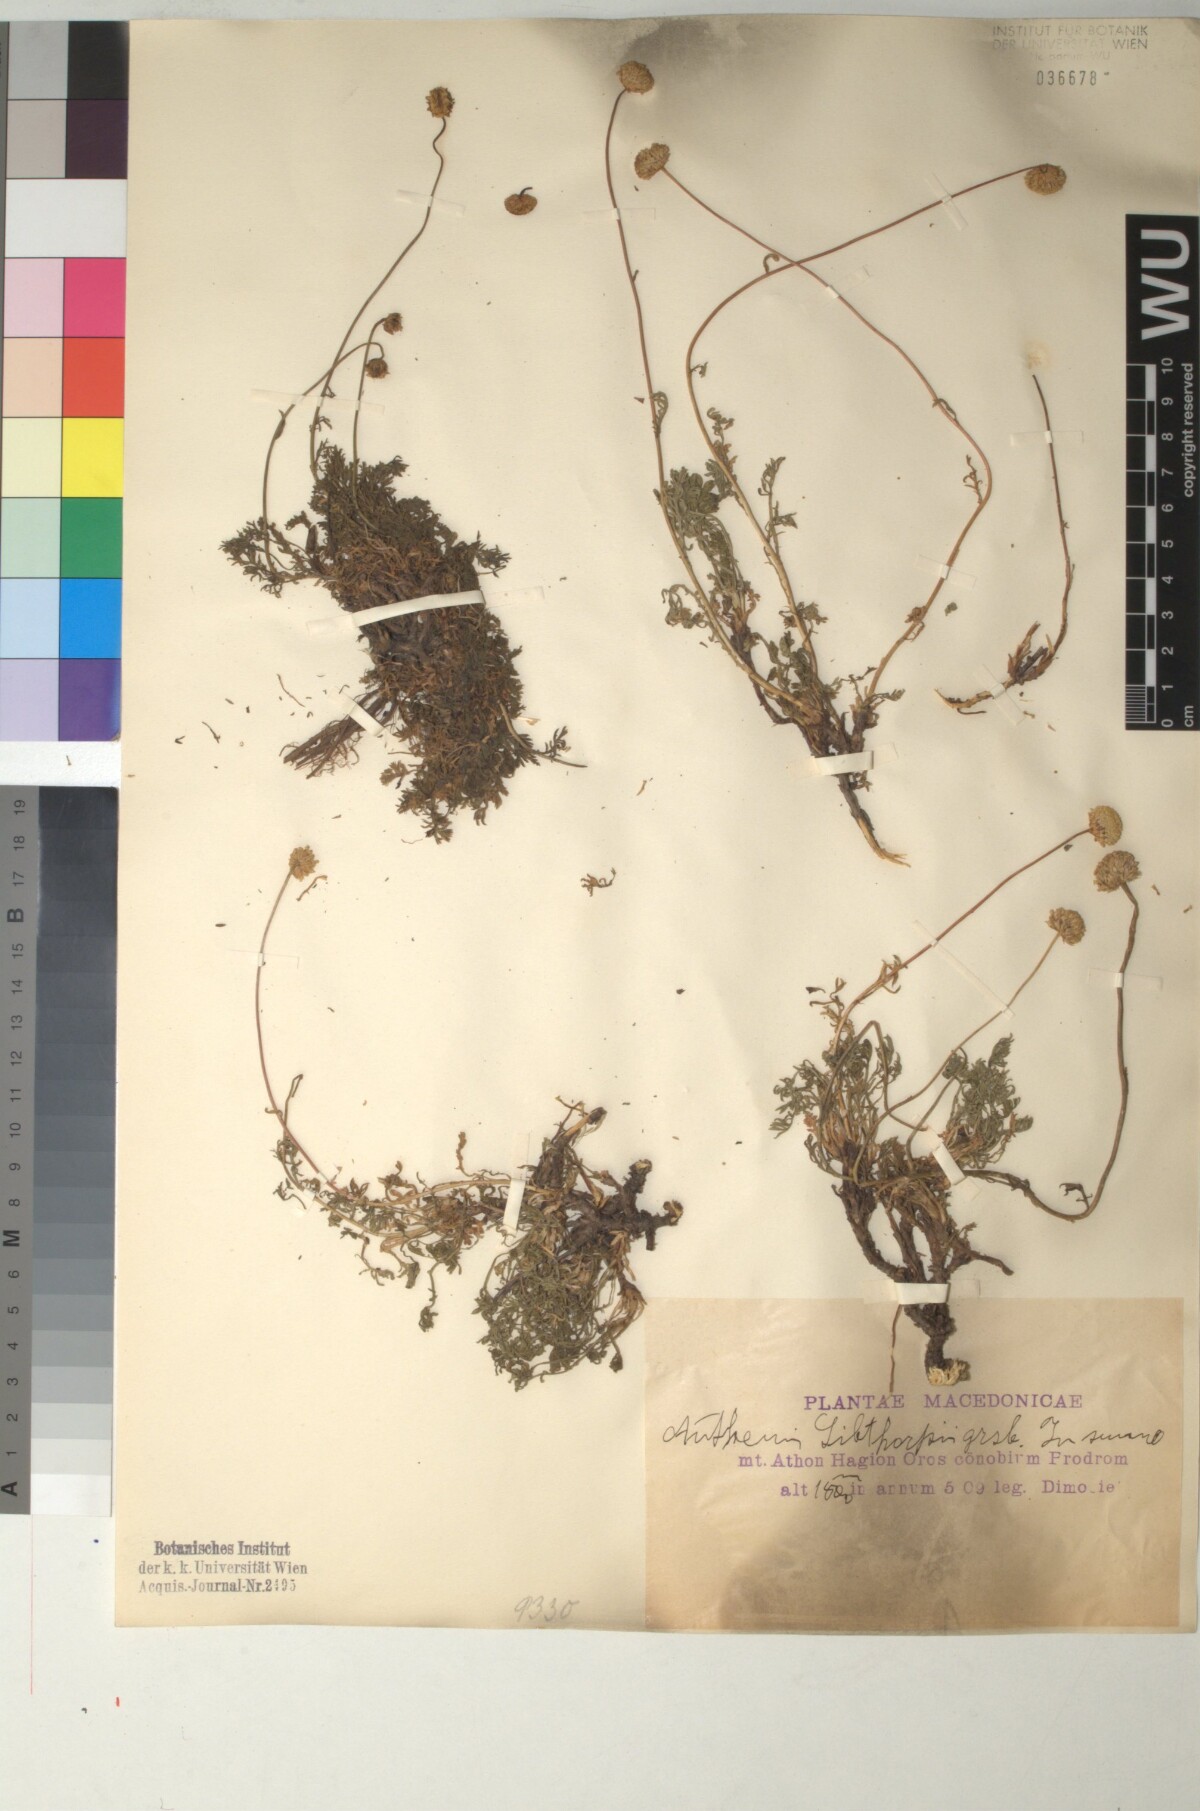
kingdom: Plantae
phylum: Tracheophyta
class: Magnoliopsida
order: Asterales
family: Asteraceae
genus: Anthemis
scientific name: Anthemis sibthorpii
